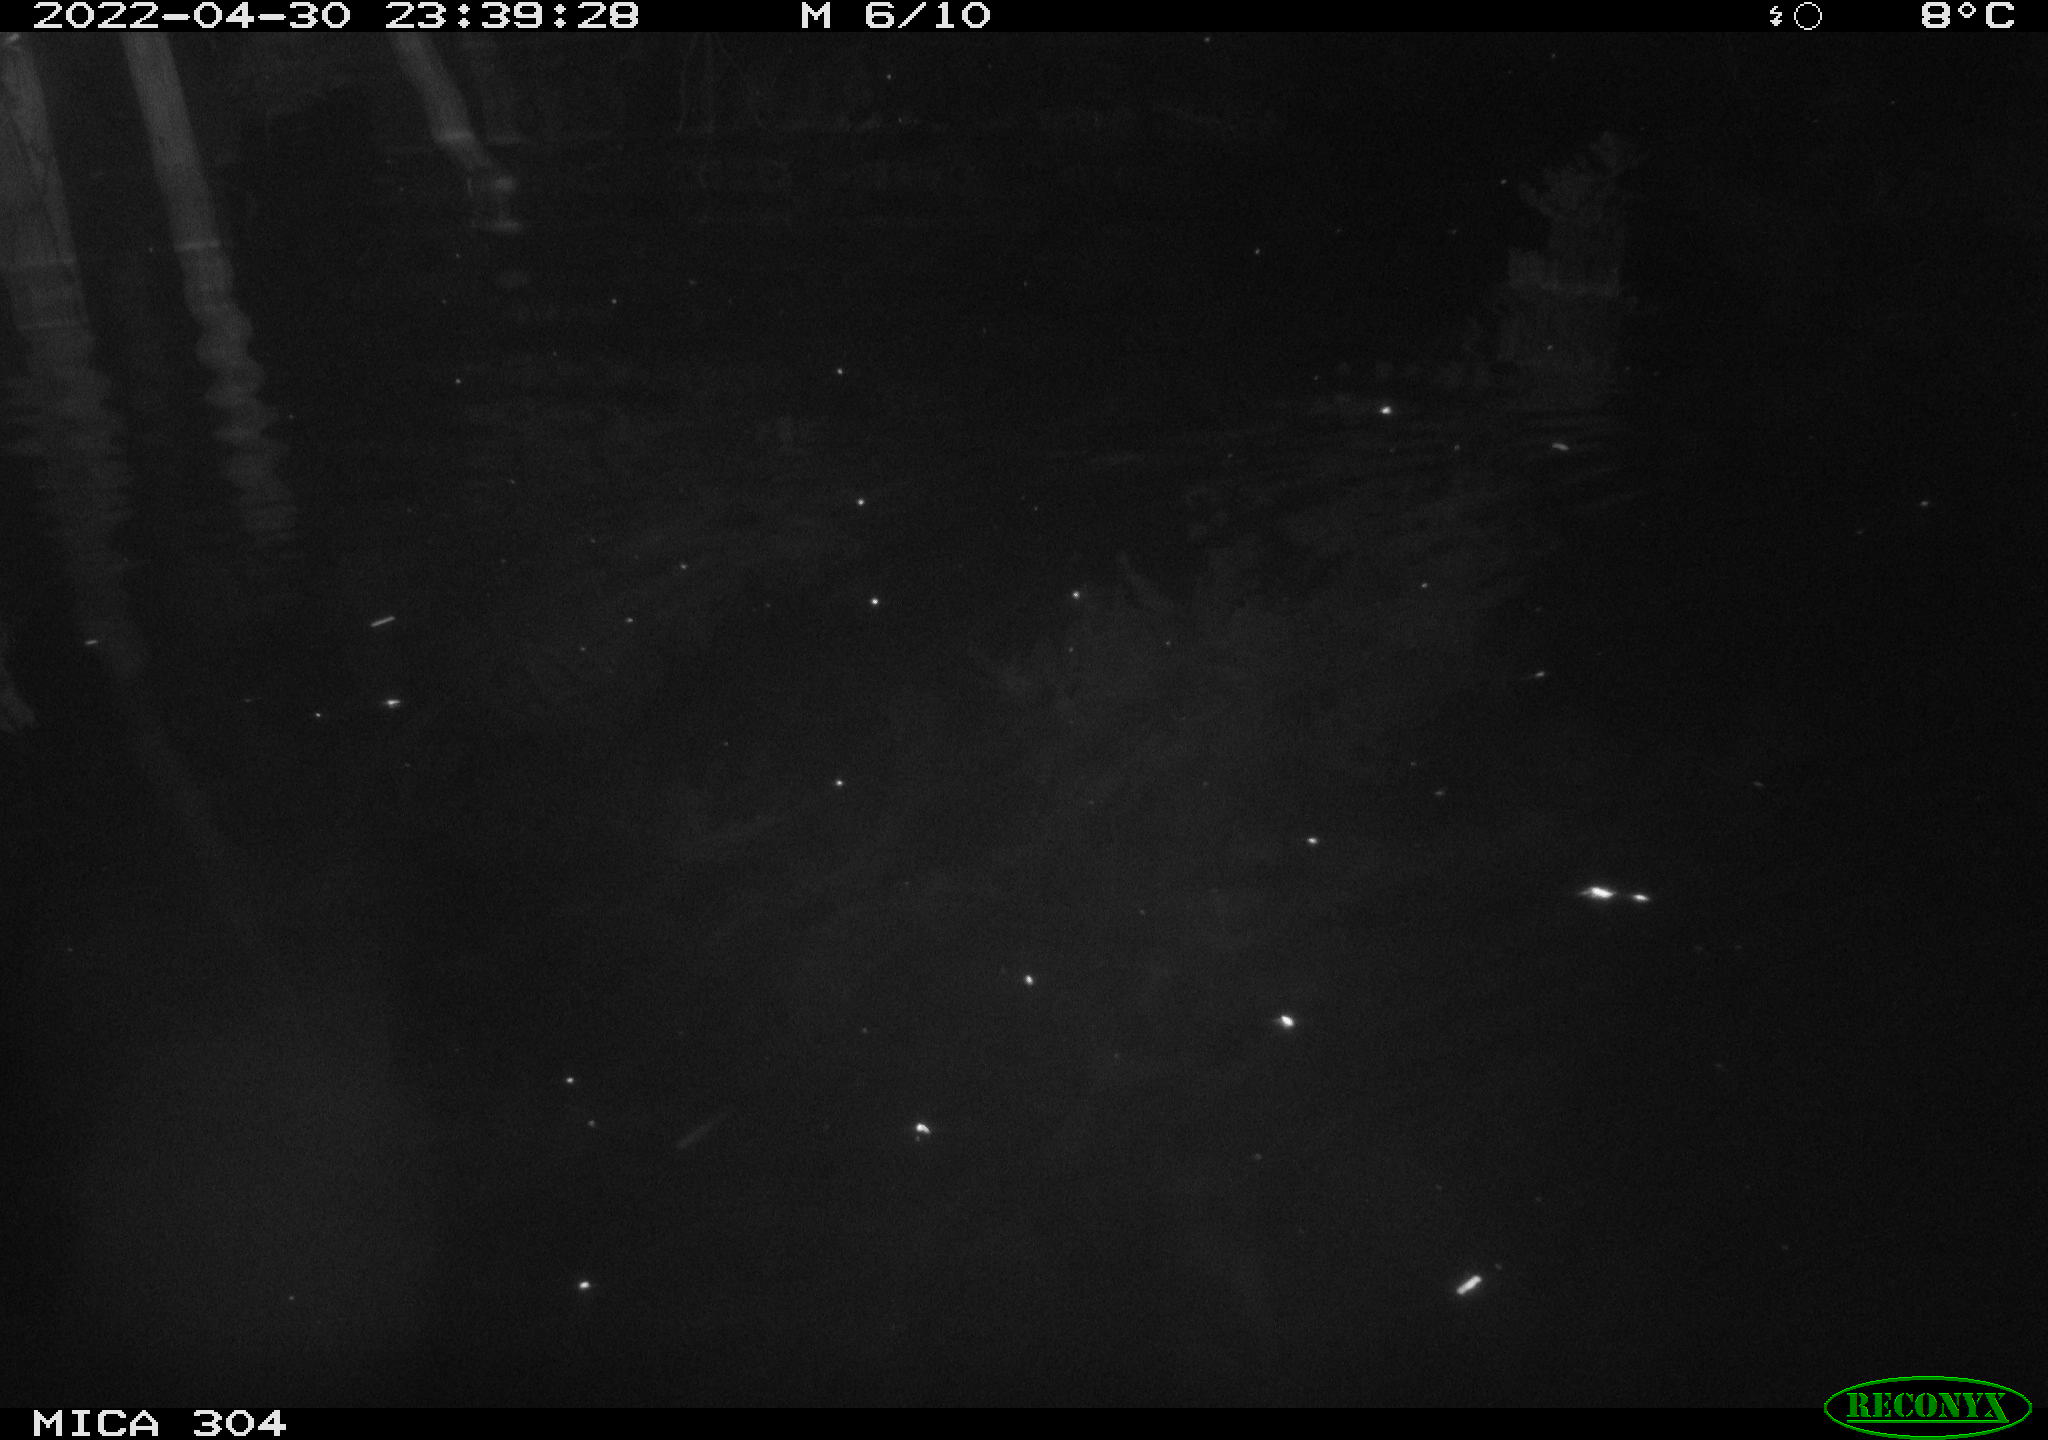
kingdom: Animalia
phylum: Chordata
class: Mammalia
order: Rodentia
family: Muridae
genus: Rattus
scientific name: Rattus norvegicus
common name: Brown rat
